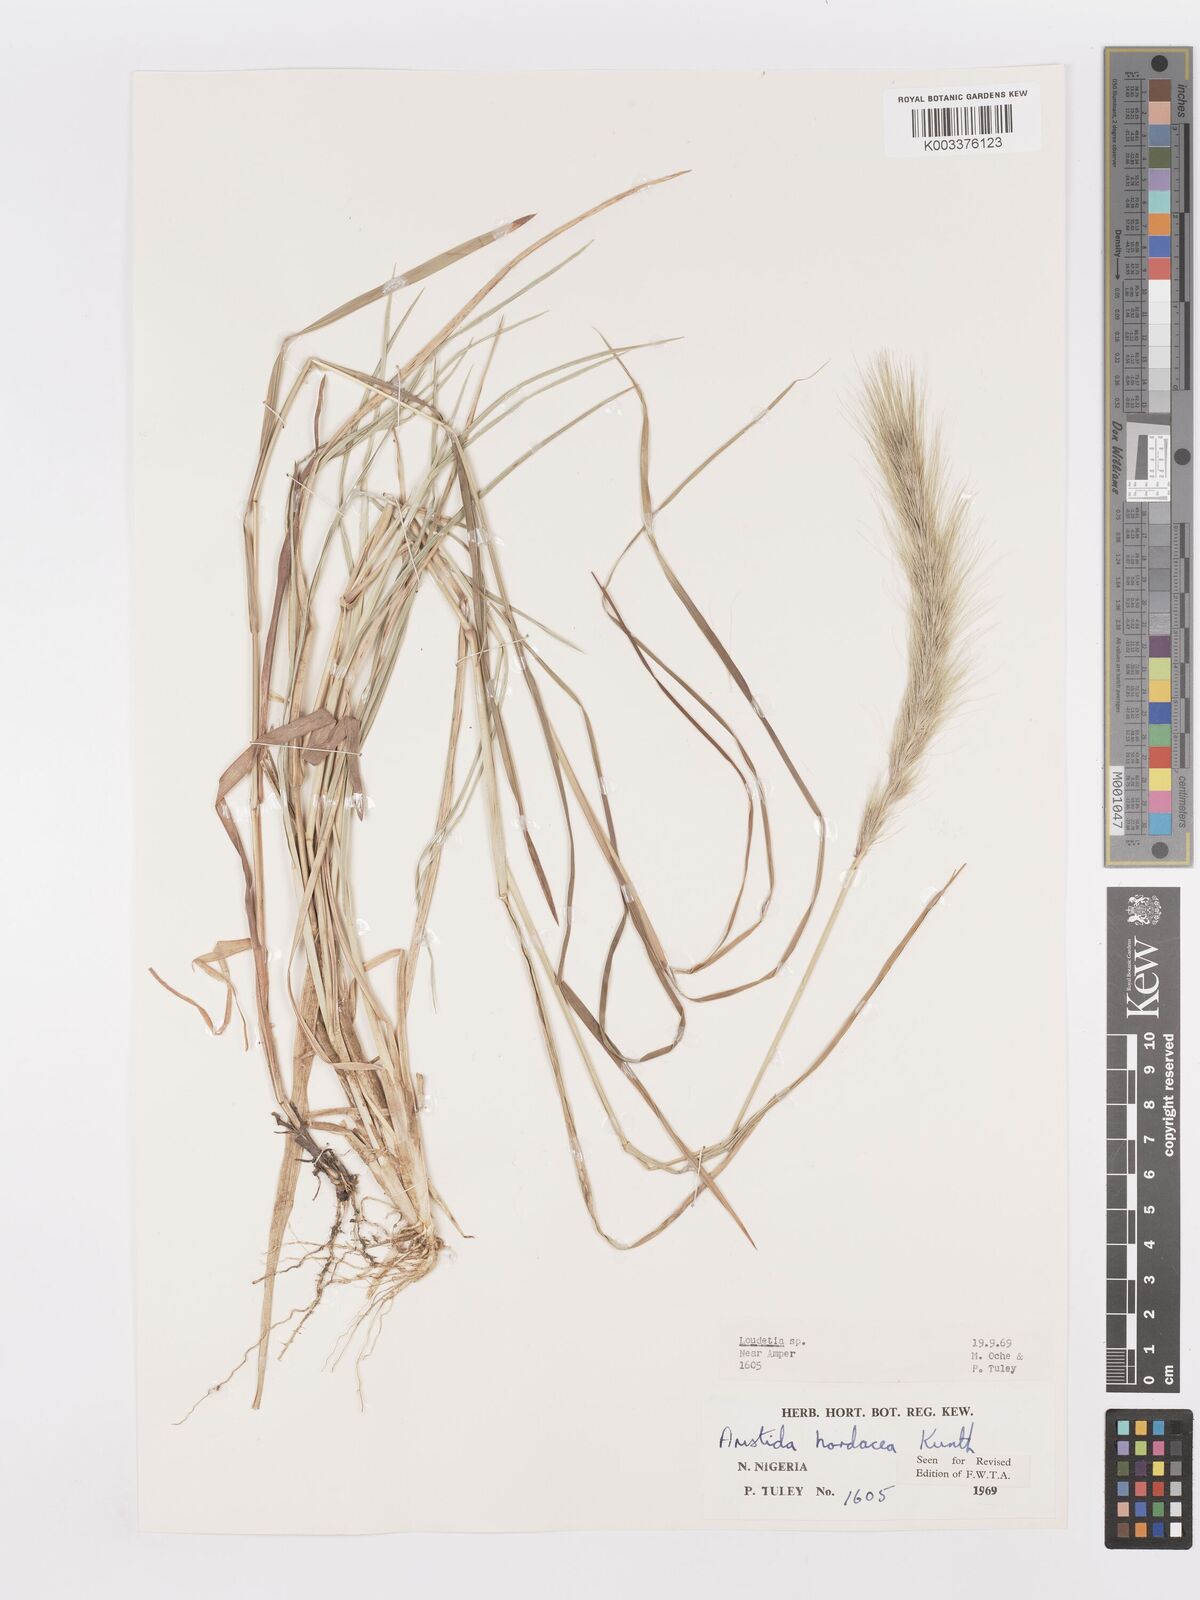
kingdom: Plantae
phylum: Tracheophyta
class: Liliopsida
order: Poales
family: Poaceae
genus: Aristida
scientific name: Aristida hordeacea
